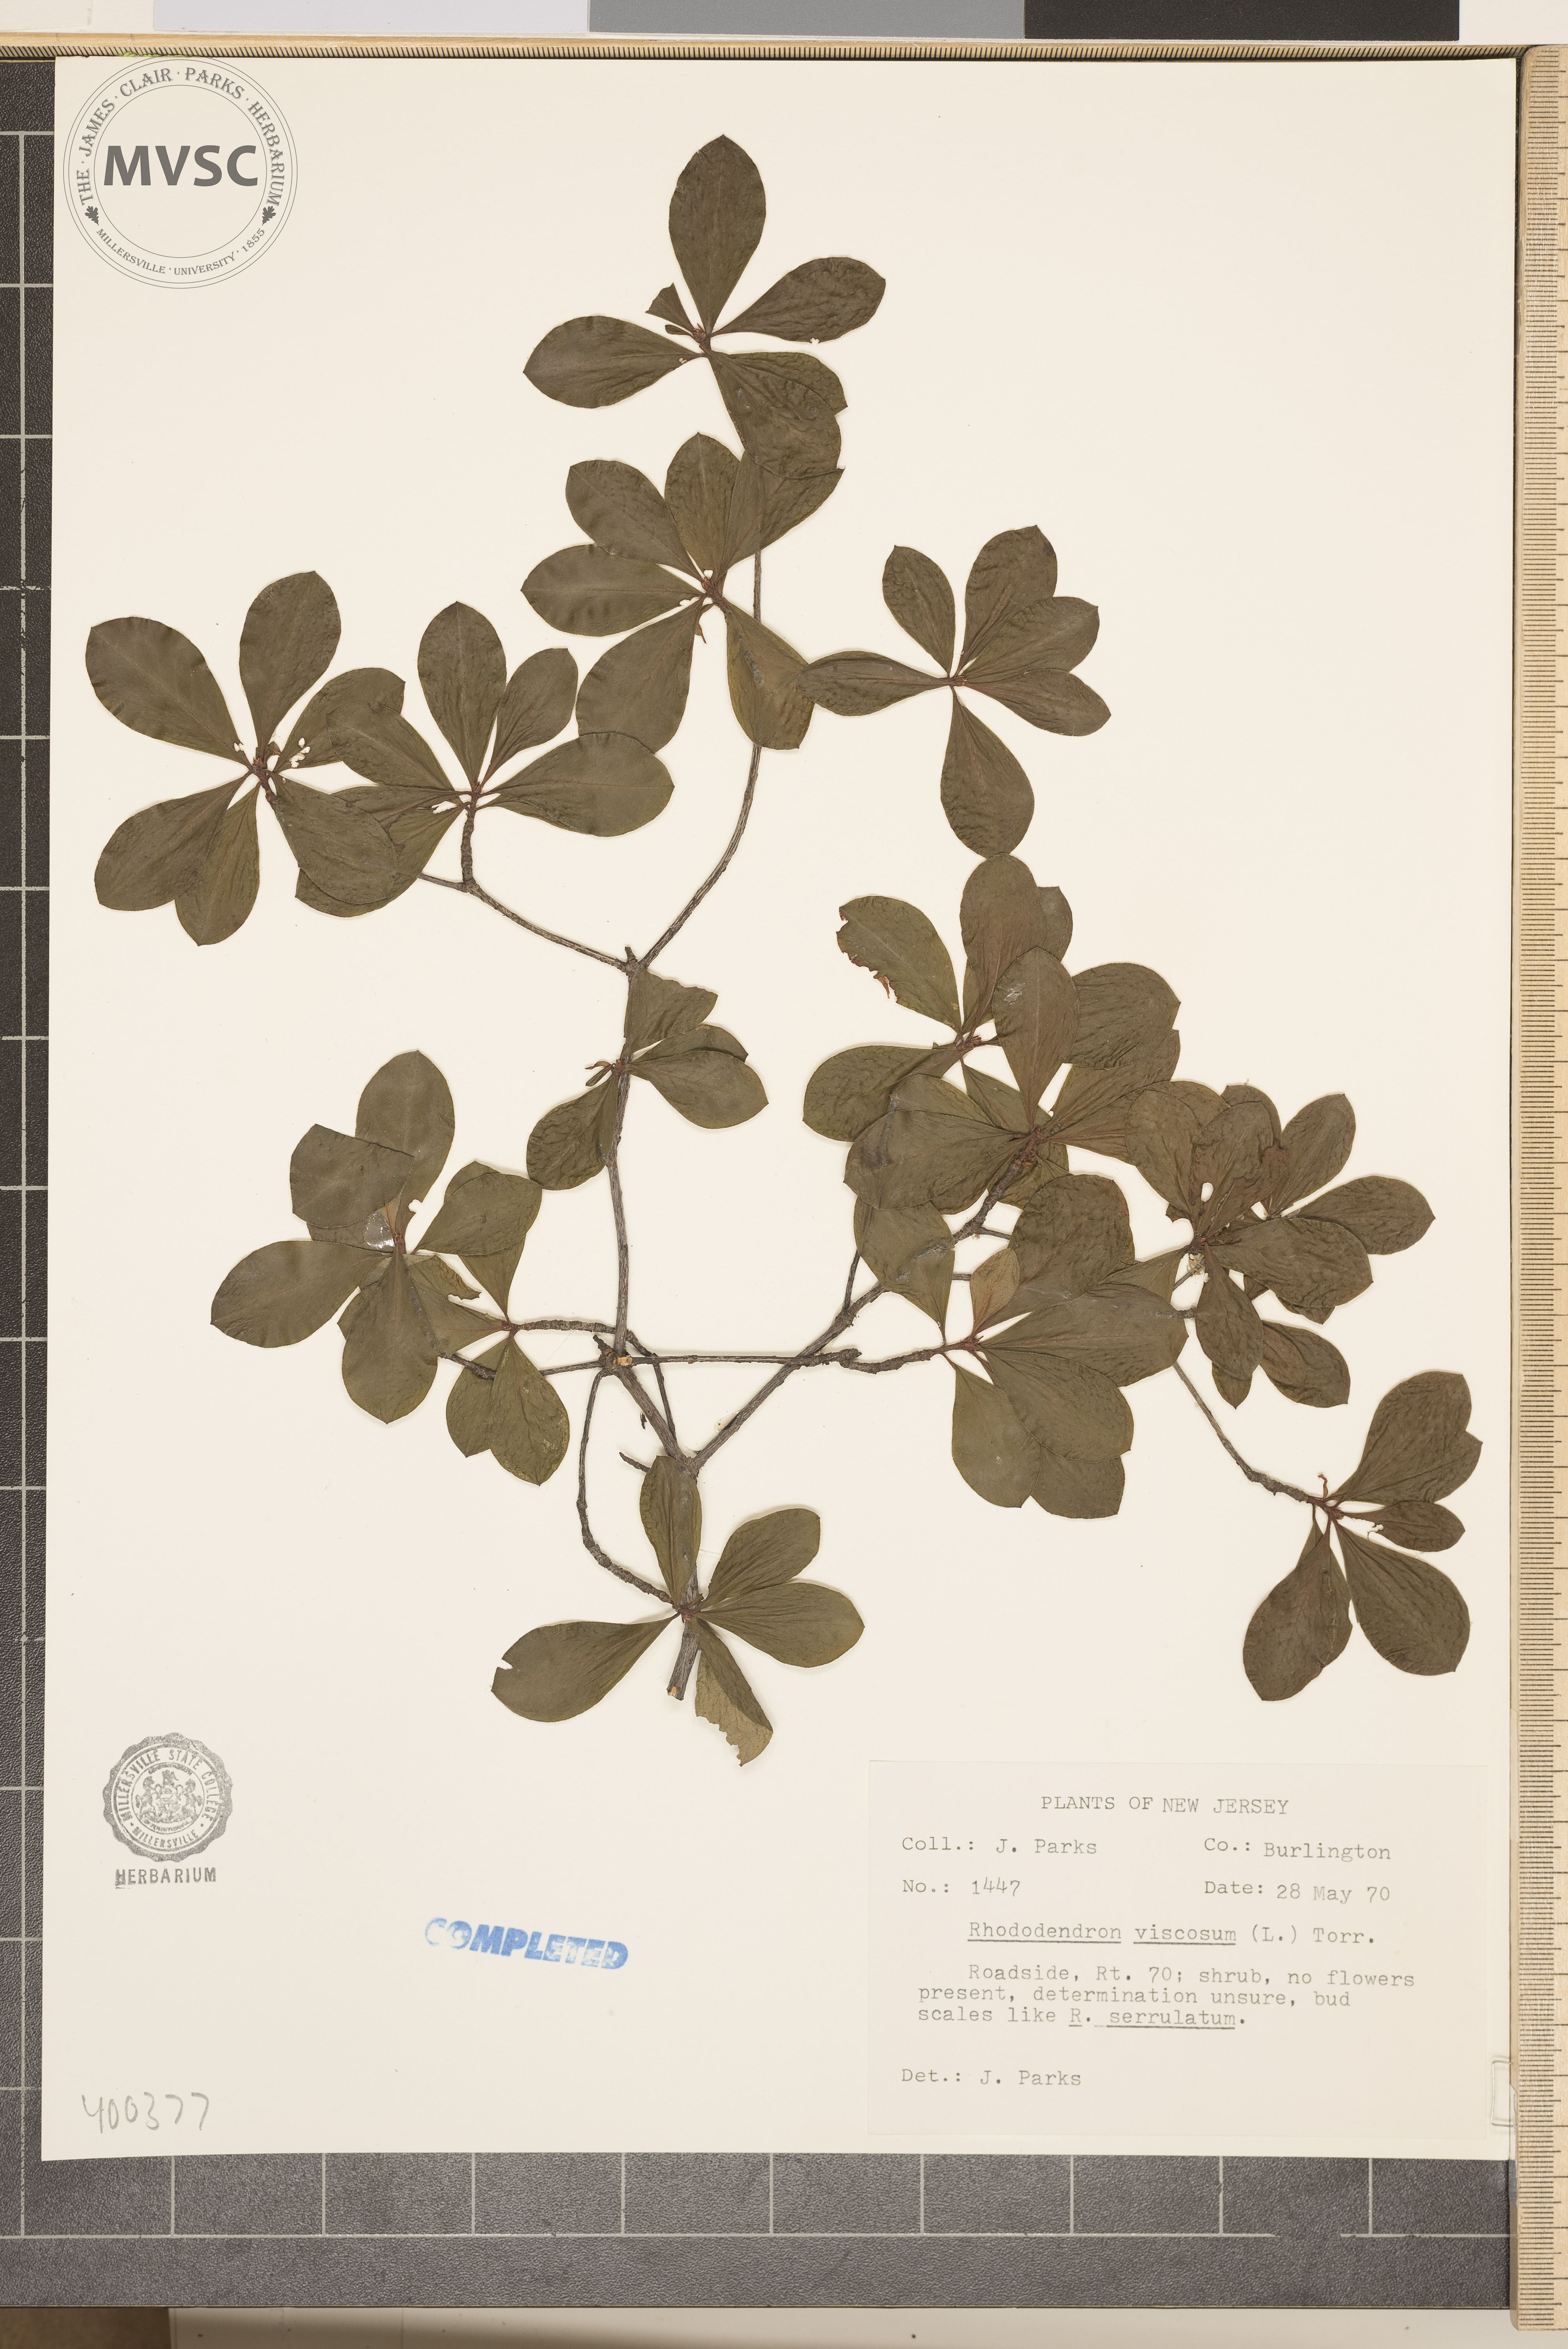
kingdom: Plantae
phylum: Tracheophyta
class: Magnoliopsida
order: Ericales
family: Ericaceae
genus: Rhododendron
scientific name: Rhododendron viscosum
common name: Clammy azalea
